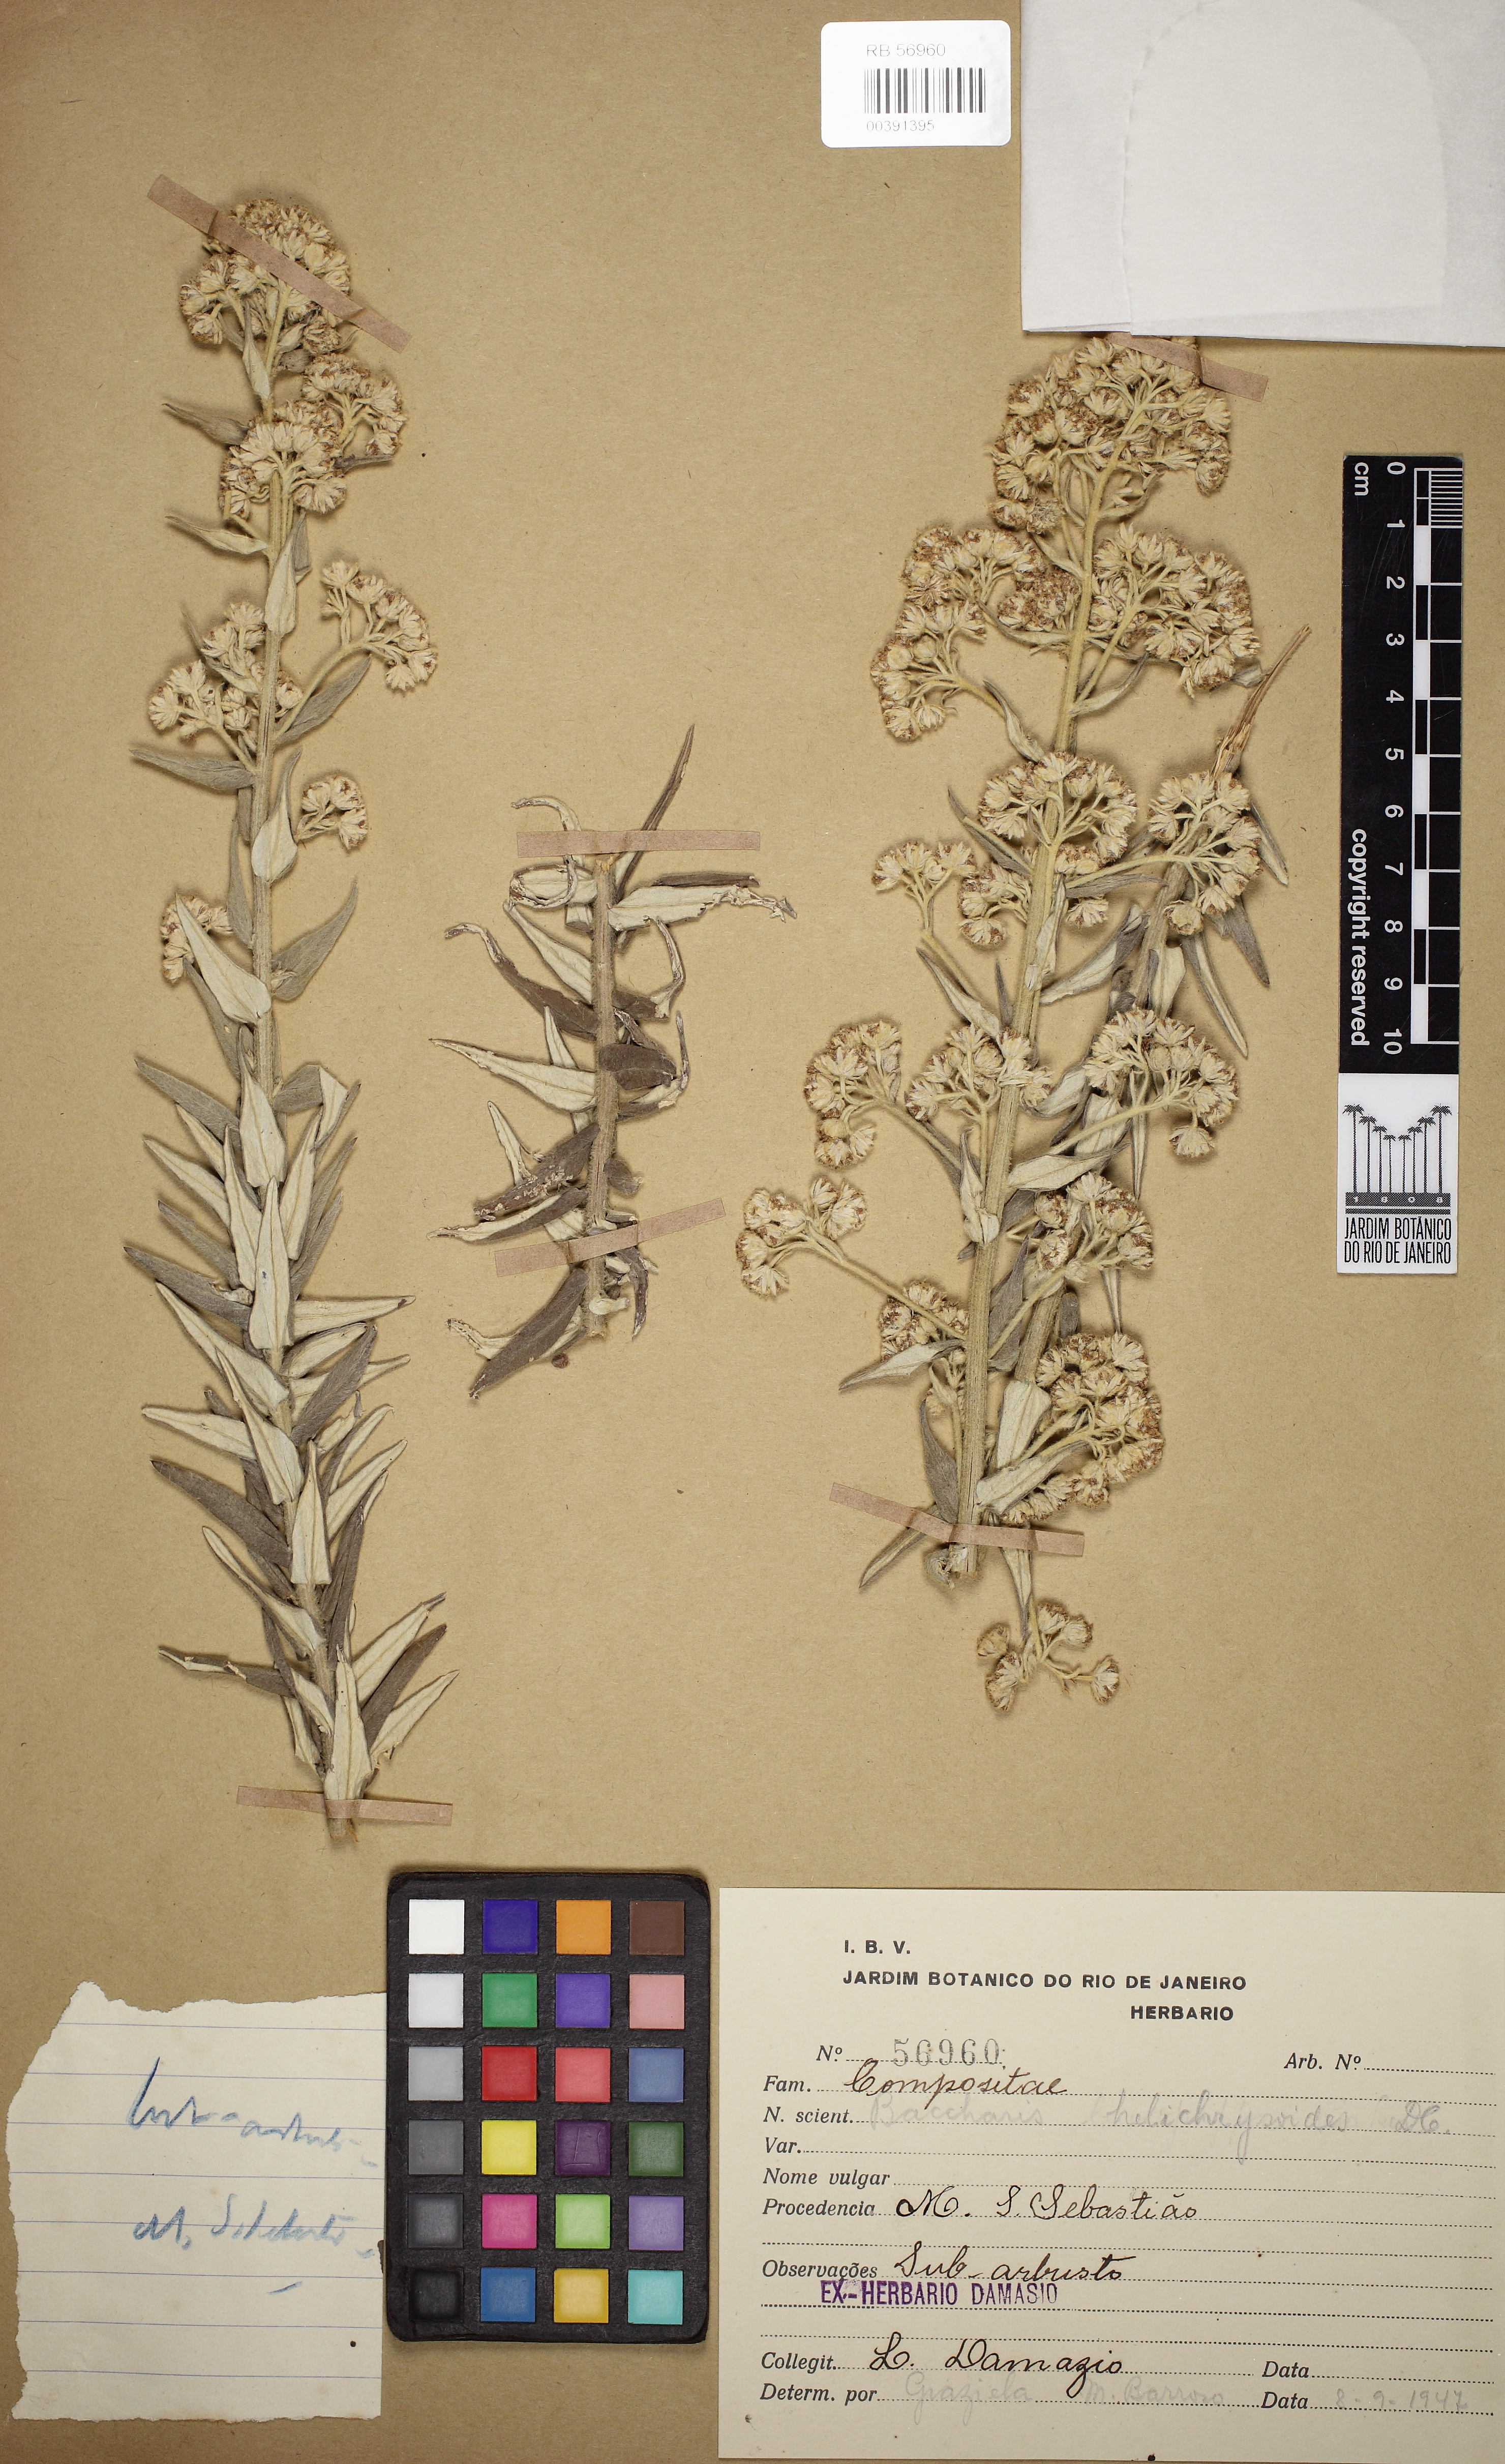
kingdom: Plantae
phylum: Tracheophyta
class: Magnoliopsida
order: Asterales
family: Asteraceae
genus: Baccharis
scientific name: Baccharis helichrysoides
